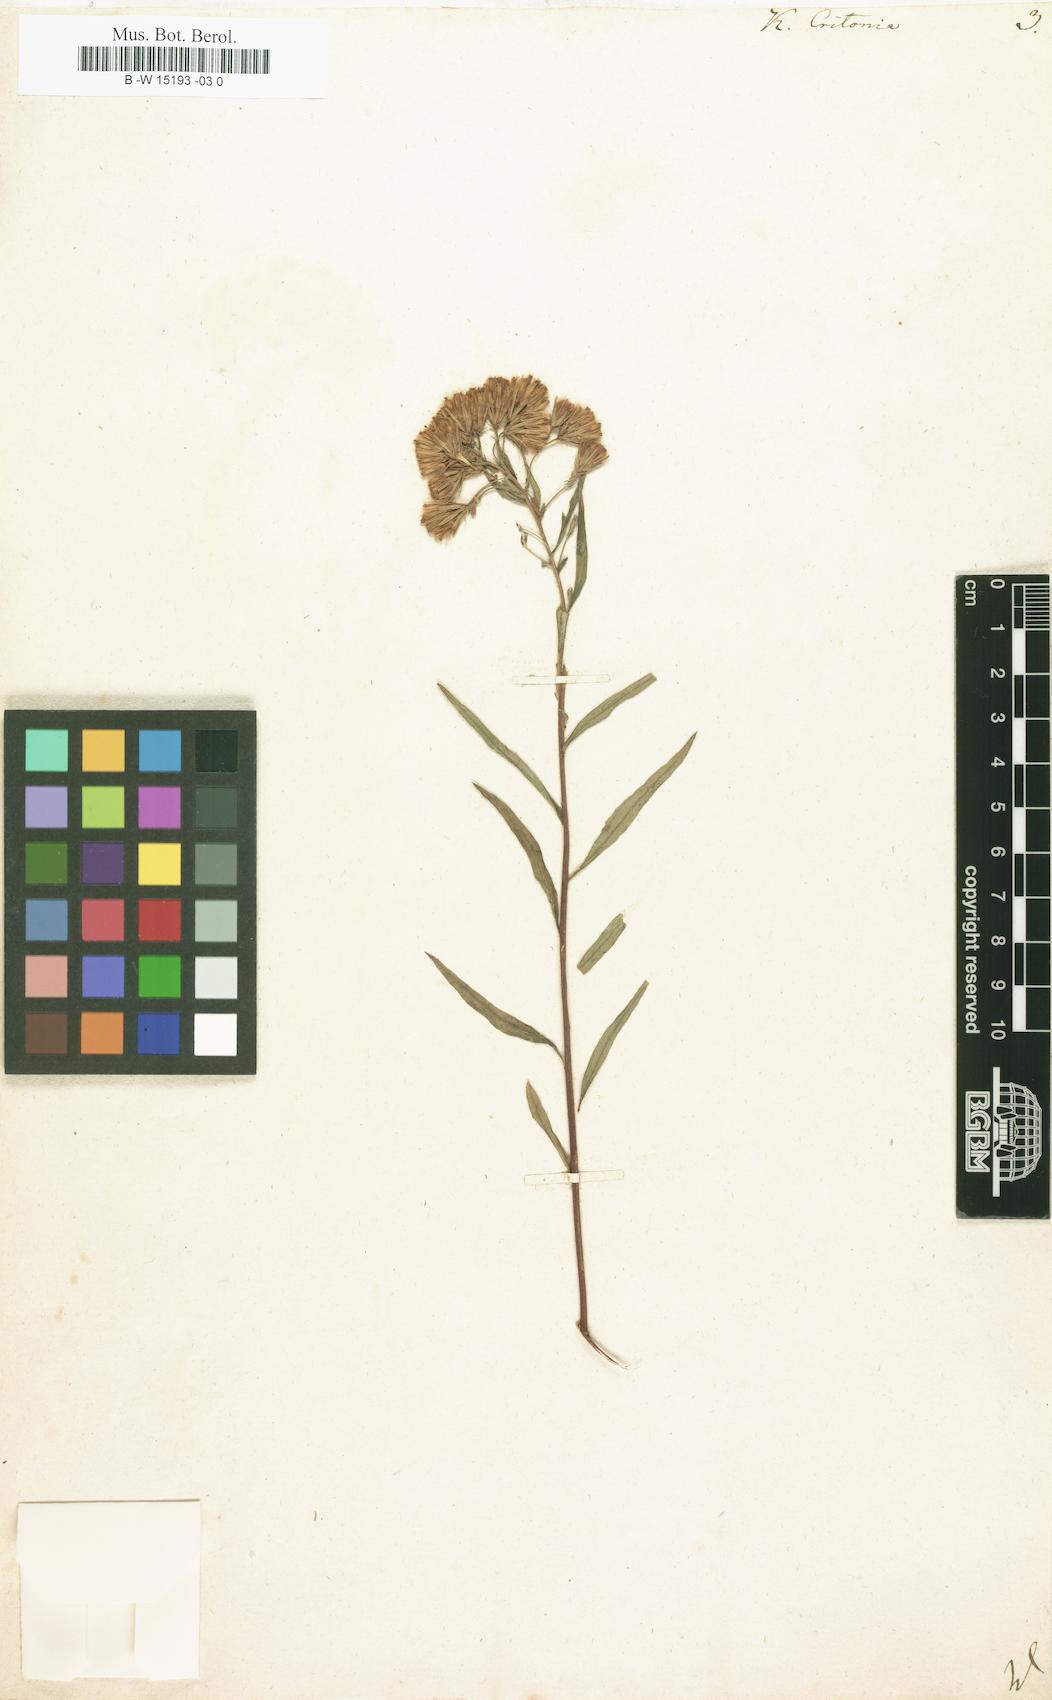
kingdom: Plantae
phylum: Tracheophyta
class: Magnoliopsida
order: Asterales
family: Asteraceae
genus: Brickellia
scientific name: Brickellia eupatorioides
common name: False boneset
